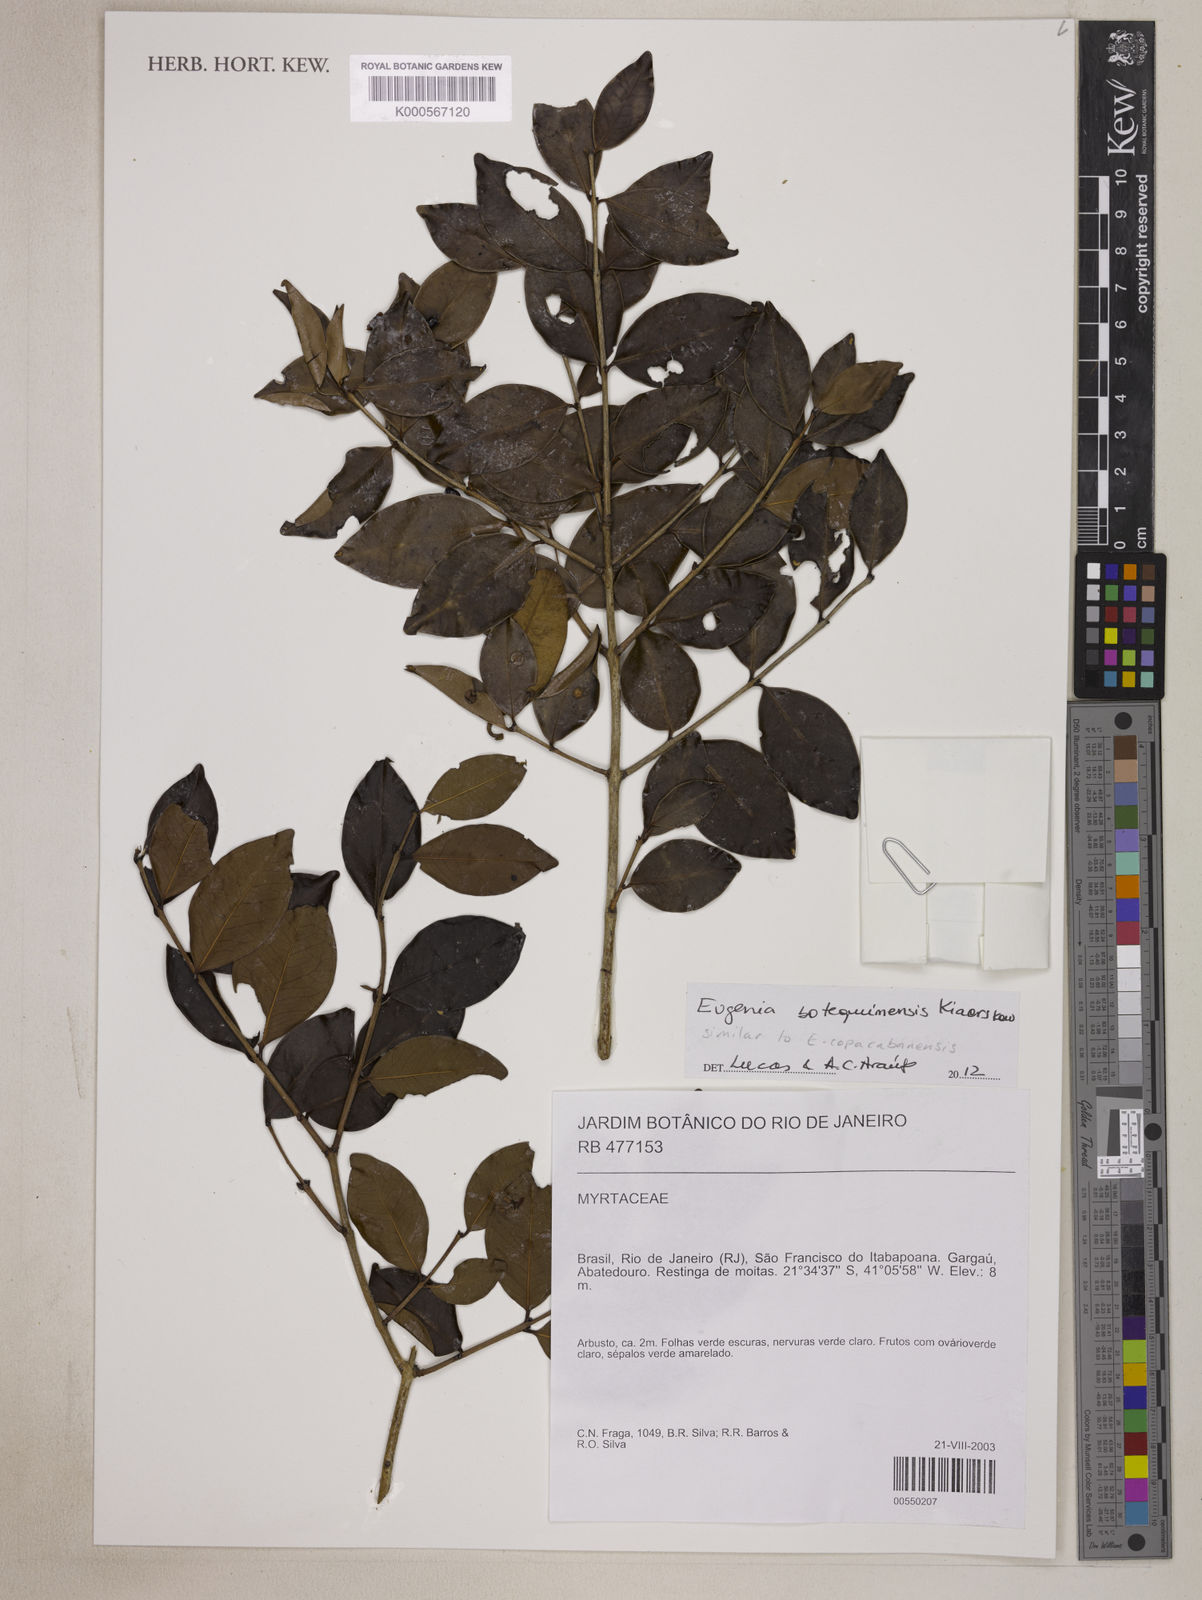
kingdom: Plantae
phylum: Tracheophyta
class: Magnoliopsida
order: Myrtales
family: Myrtaceae
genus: Eugenia
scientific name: Eugenia
